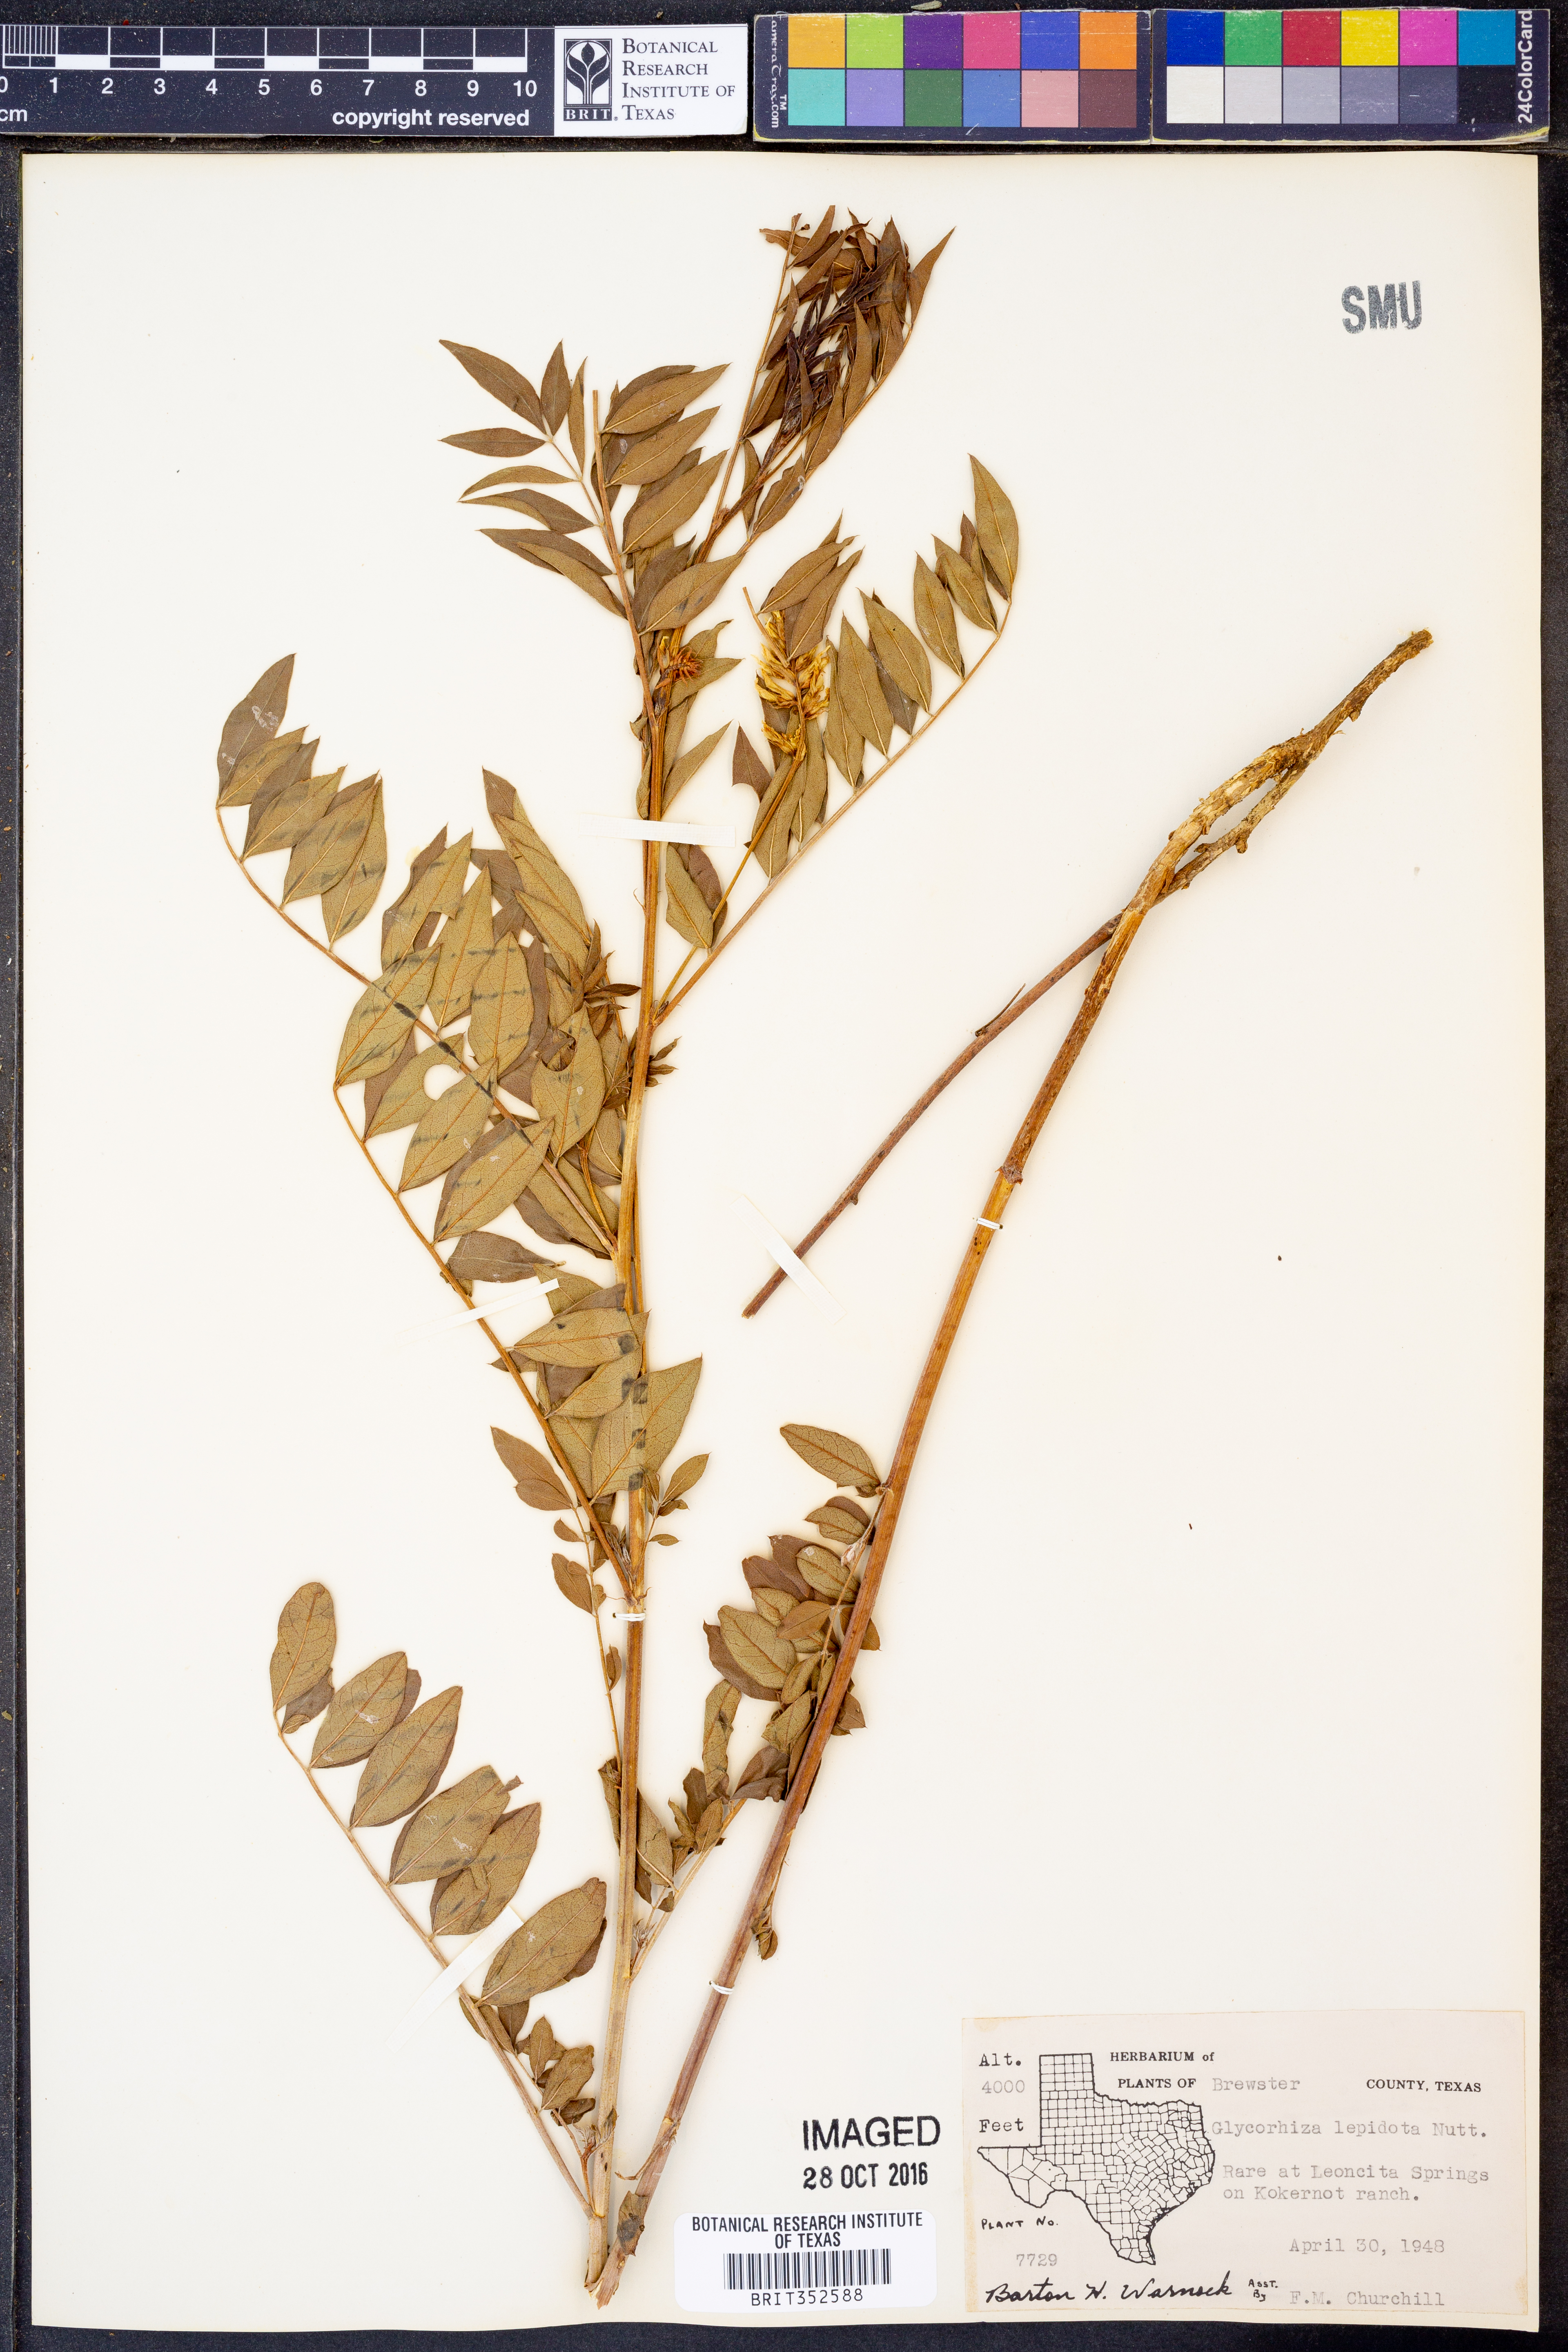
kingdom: Plantae
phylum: Tracheophyta
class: Magnoliopsida
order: Fabales
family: Fabaceae
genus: Glycyrrhiza
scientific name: Glycyrrhiza lepidota
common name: American liquorice
